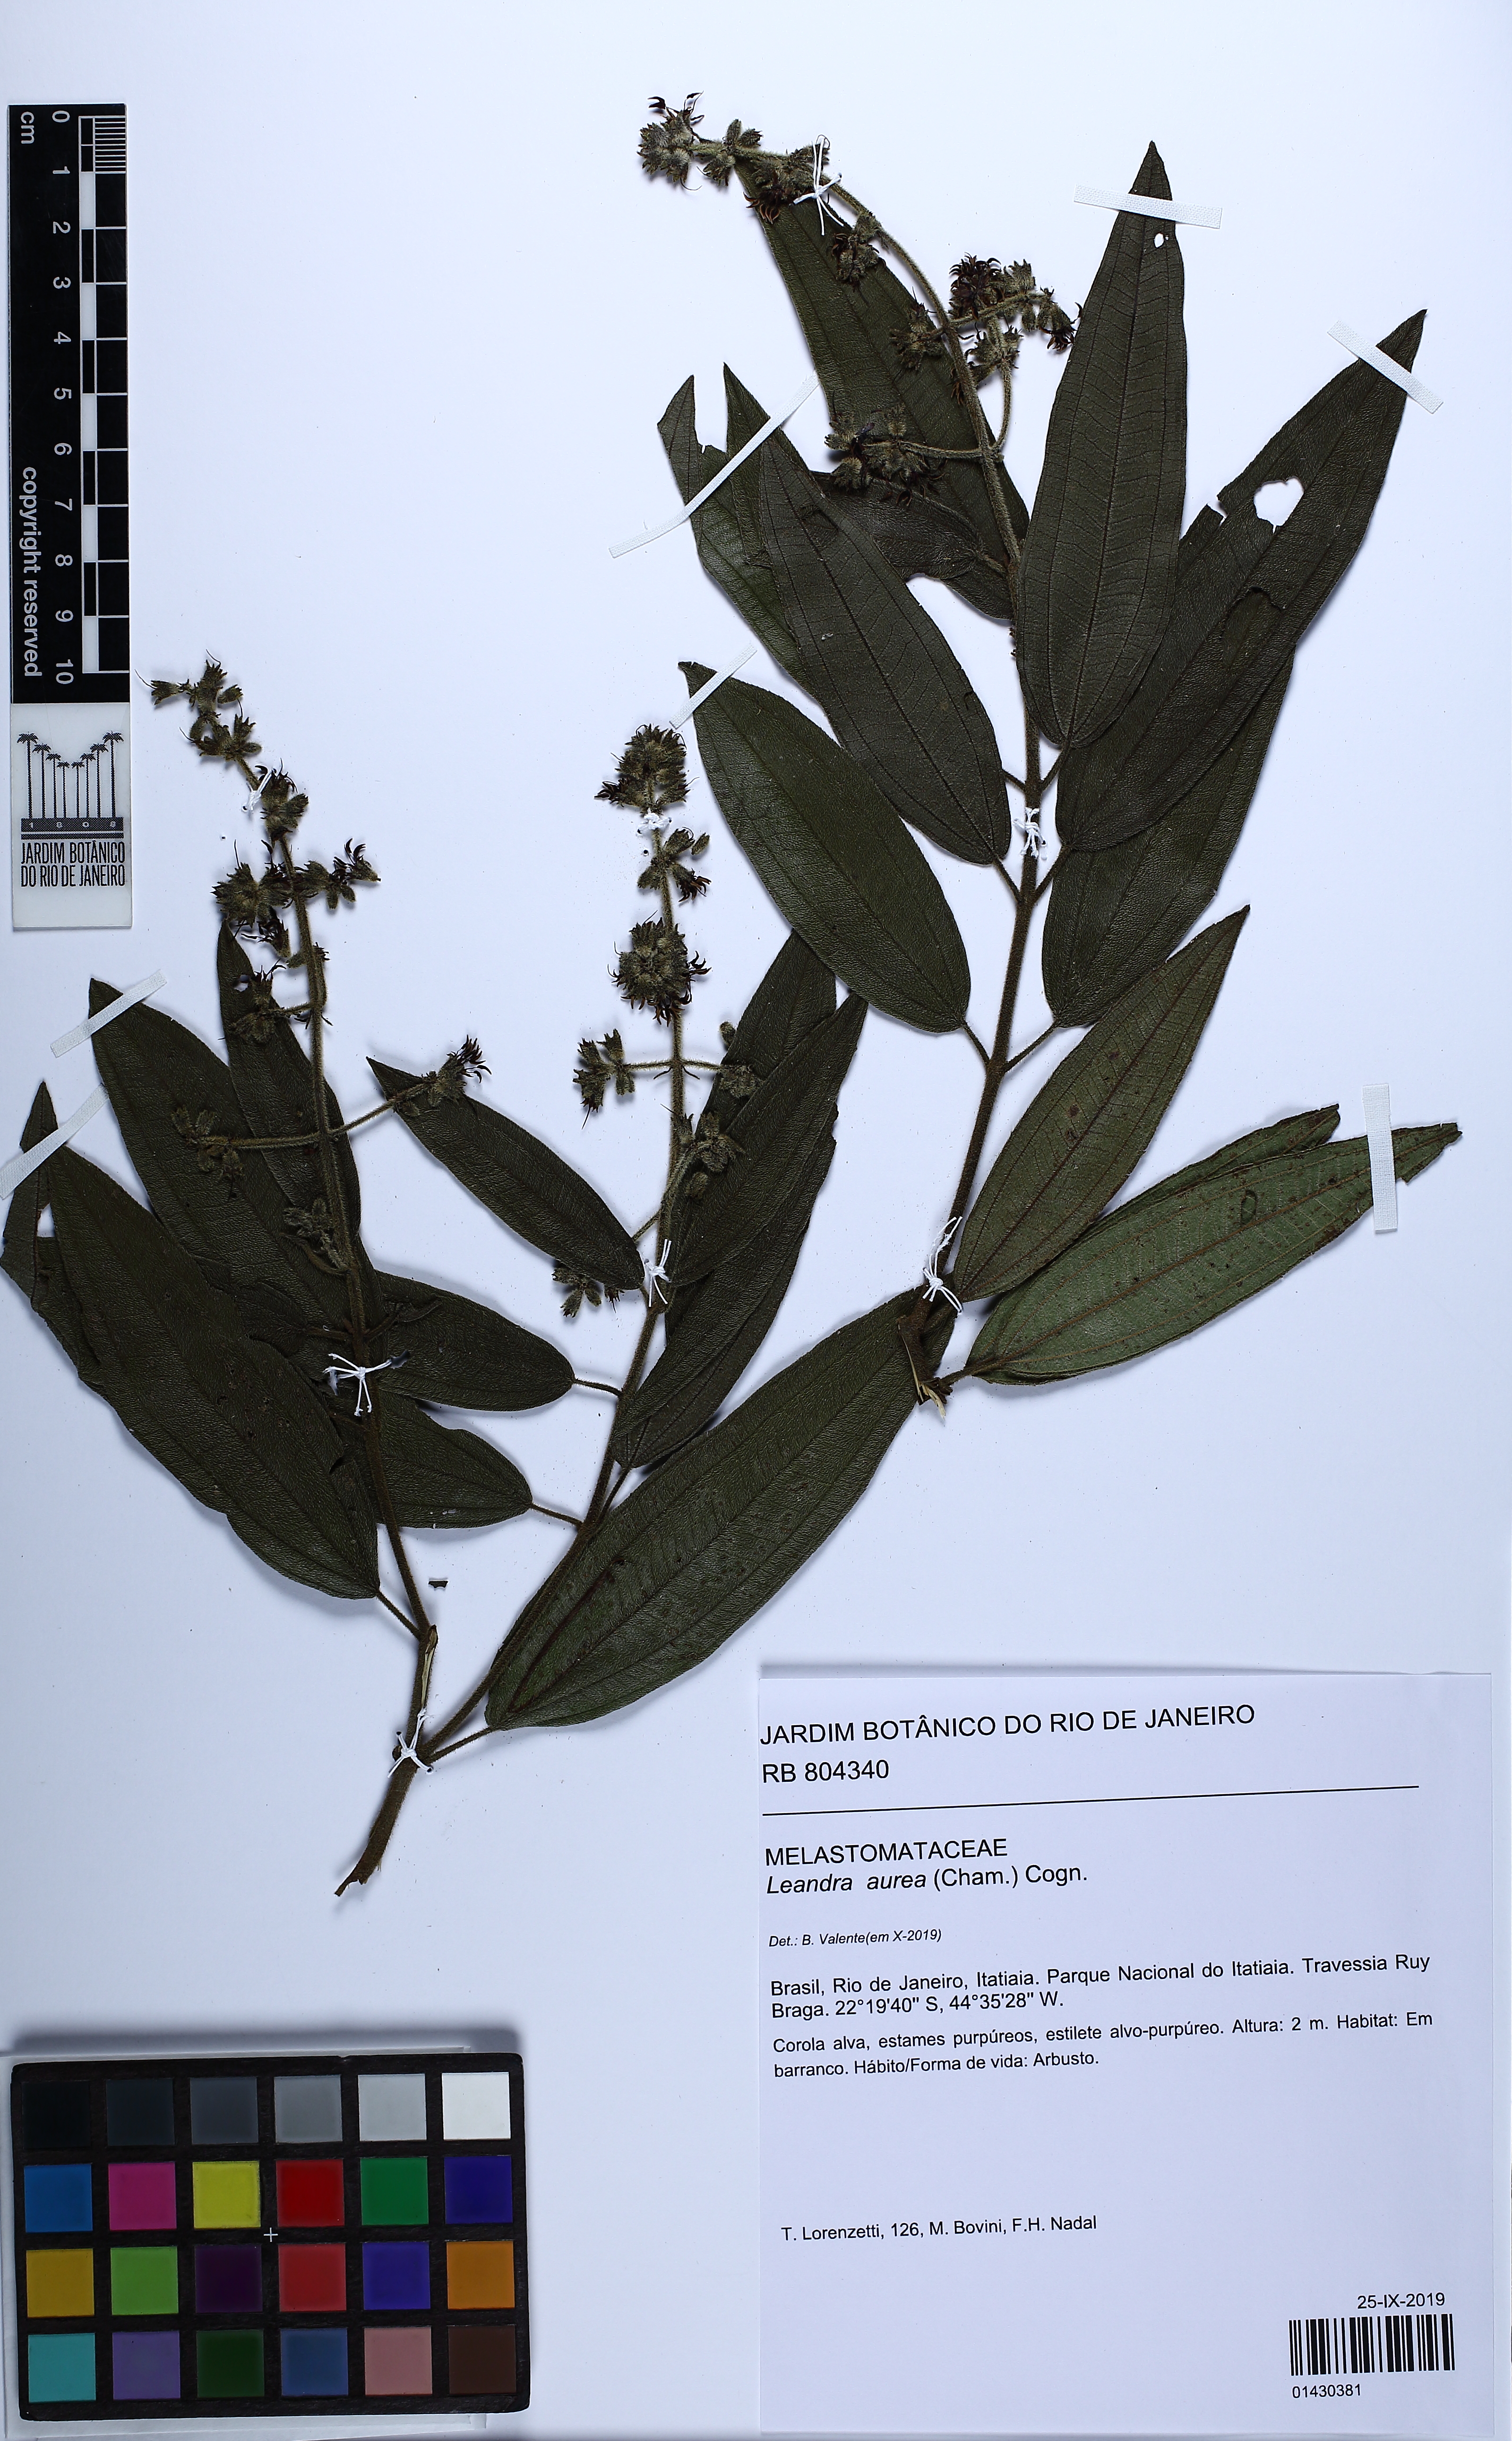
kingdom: Plantae
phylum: Tracheophyta
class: Magnoliopsida
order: Myrtales
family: Melastomataceae
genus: Miconia
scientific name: Miconia auricoma
